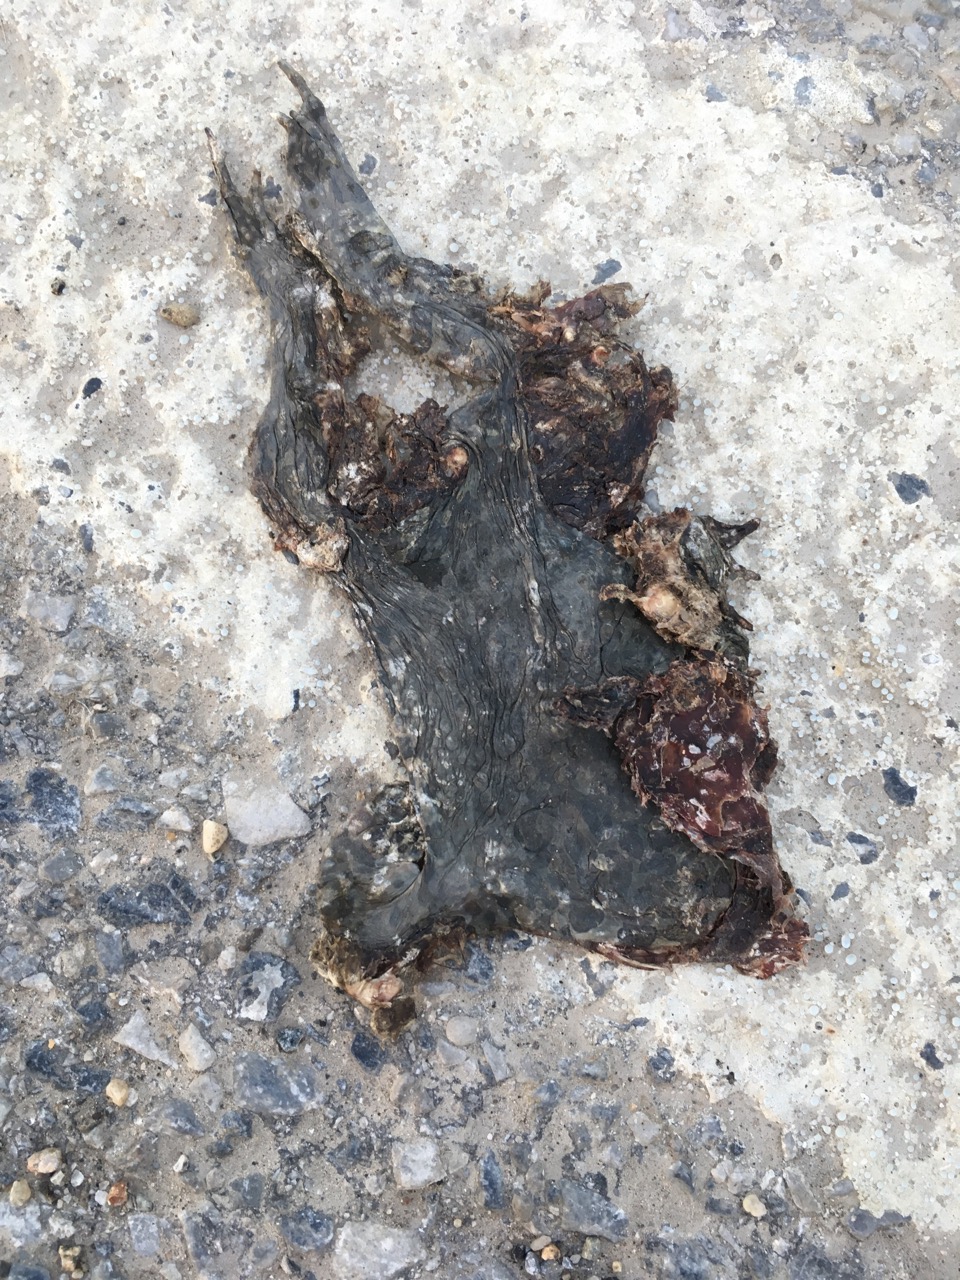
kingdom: Animalia
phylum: Chordata
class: Amphibia
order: Anura
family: Bufonidae
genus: Bufotes
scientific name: Bufotes viridis
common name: European green toad
